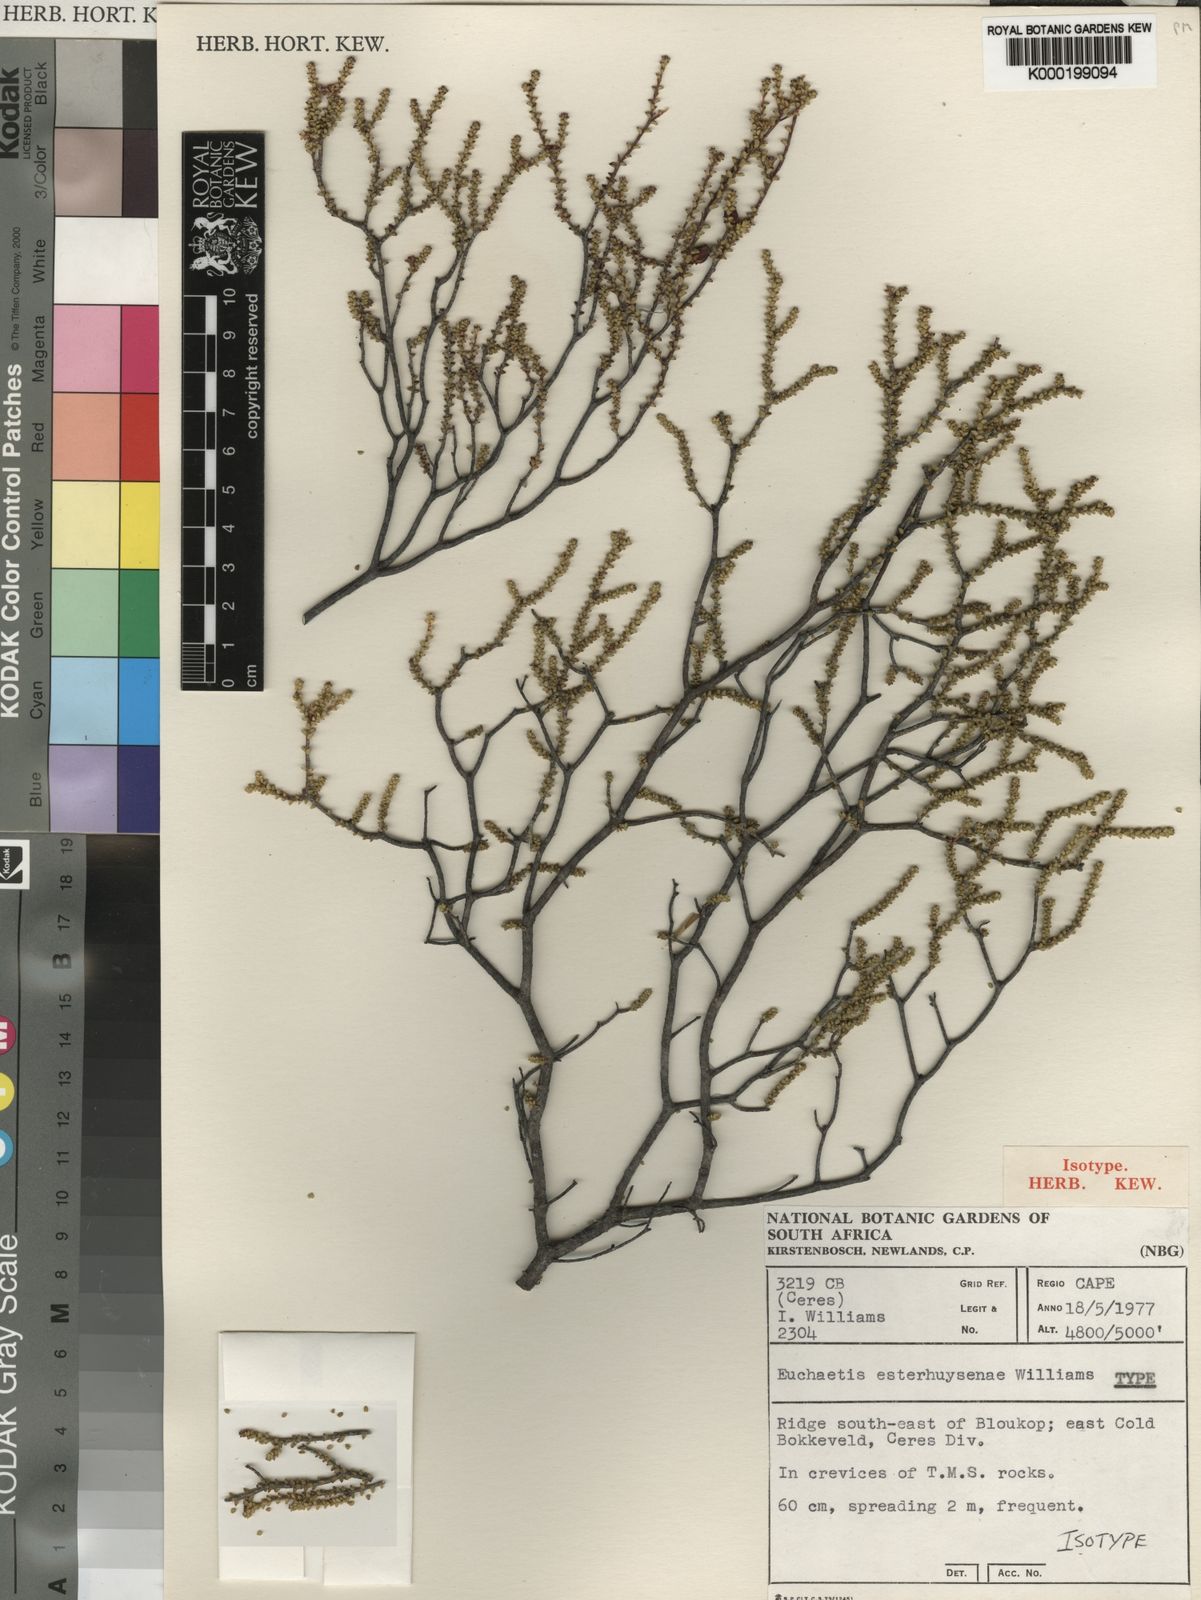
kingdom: Plantae
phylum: Tracheophyta
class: Magnoliopsida
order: Sapindales
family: Rutaceae
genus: Euchaetis
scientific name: Euchaetis esterhuyseniae
